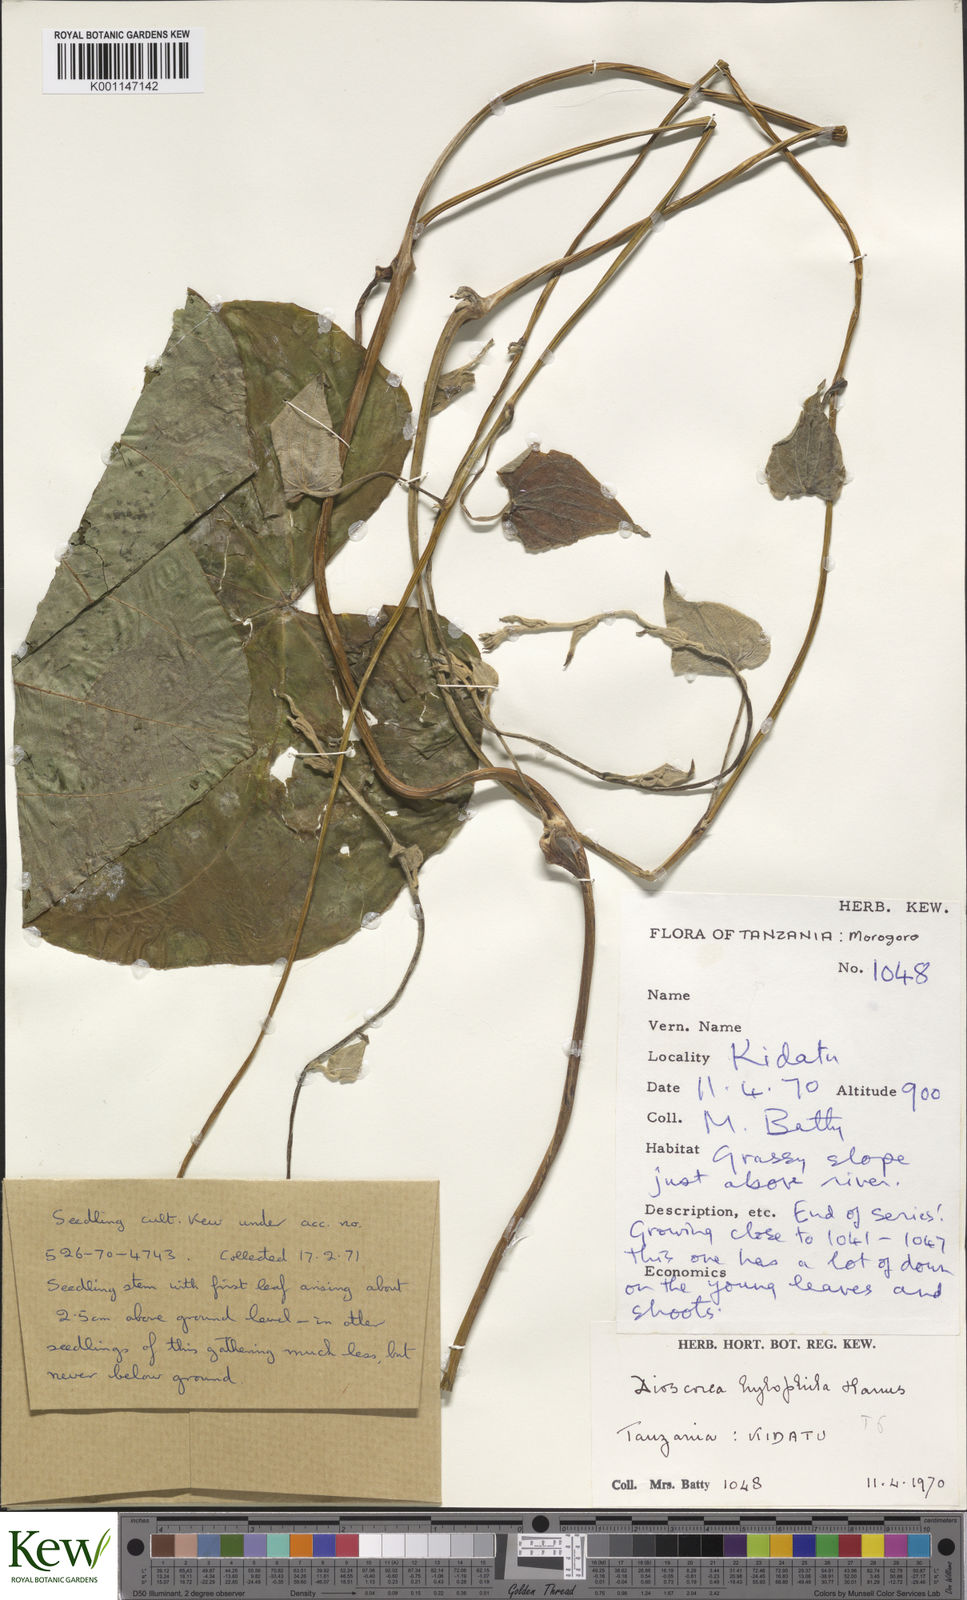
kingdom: Plantae
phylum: Tracheophyta
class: Liliopsida
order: Dioscoreales
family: Dioscoreaceae
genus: Dioscorea
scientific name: Dioscorea
